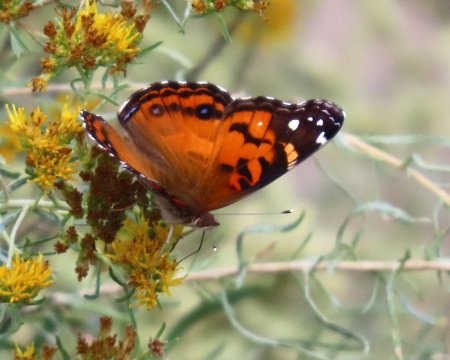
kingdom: Animalia
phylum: Arthropoda
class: Insecta
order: Lepidoptera
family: Nymphalidae
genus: Vanessa
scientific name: Vanessa virginiensis
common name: American Lady
